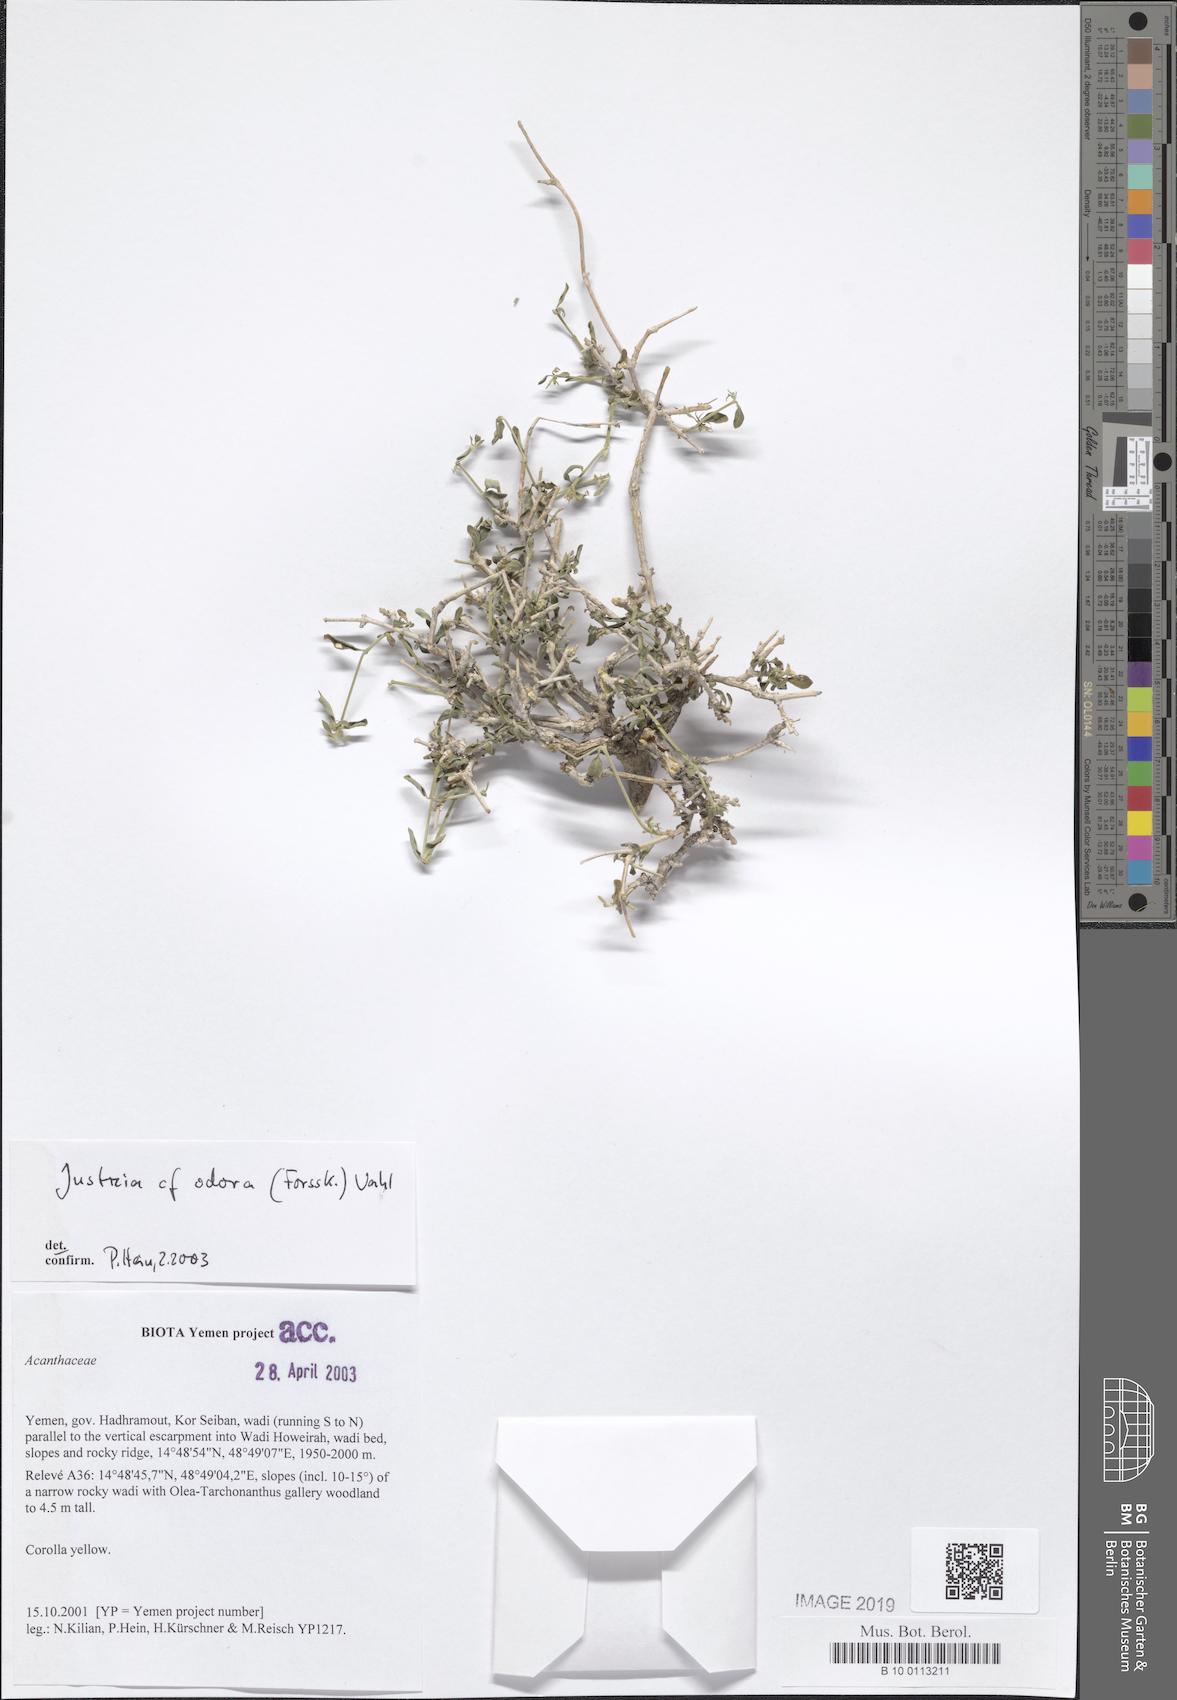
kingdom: Plantae
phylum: Tracheophyta
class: Magnoliopsida
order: Lamiales
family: Acanthaceae
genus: Justicia
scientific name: Justicia odora
